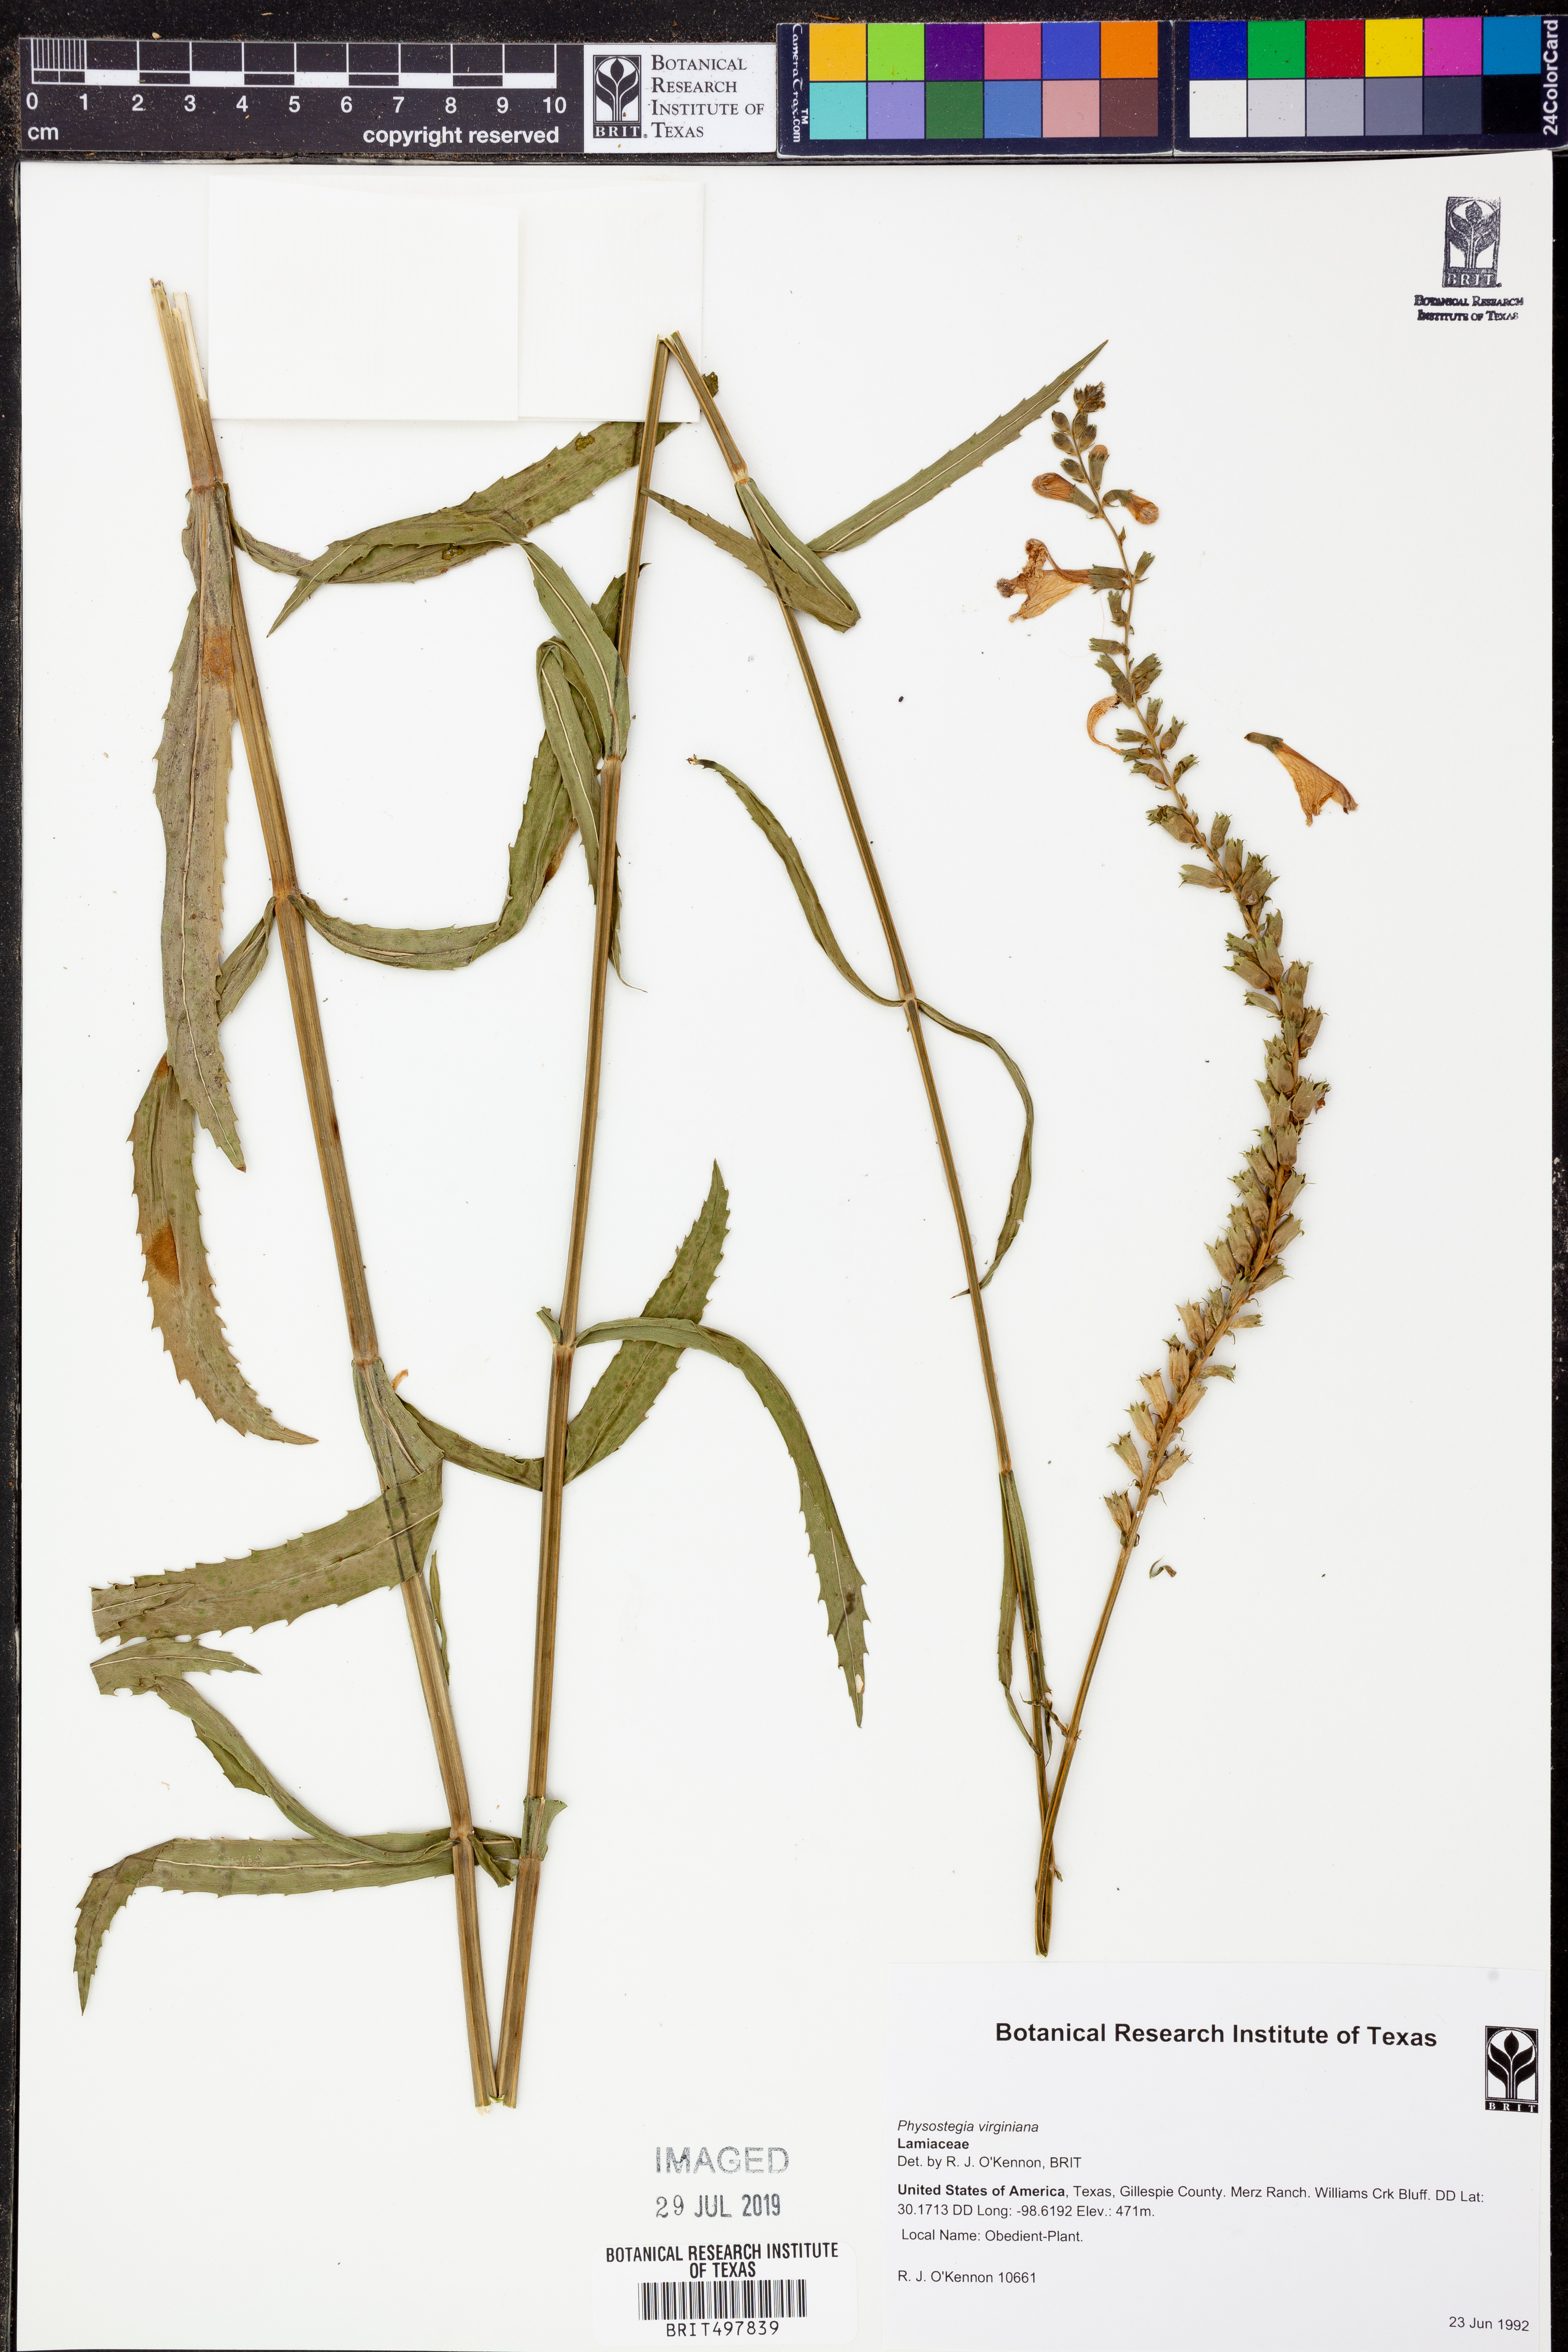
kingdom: Plantae
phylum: Tracheophyta
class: Magnoliopsida
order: Lamiales
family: Lamiaceae
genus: Physostegia
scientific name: Physostegia virginiana
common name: Obedient-plant
